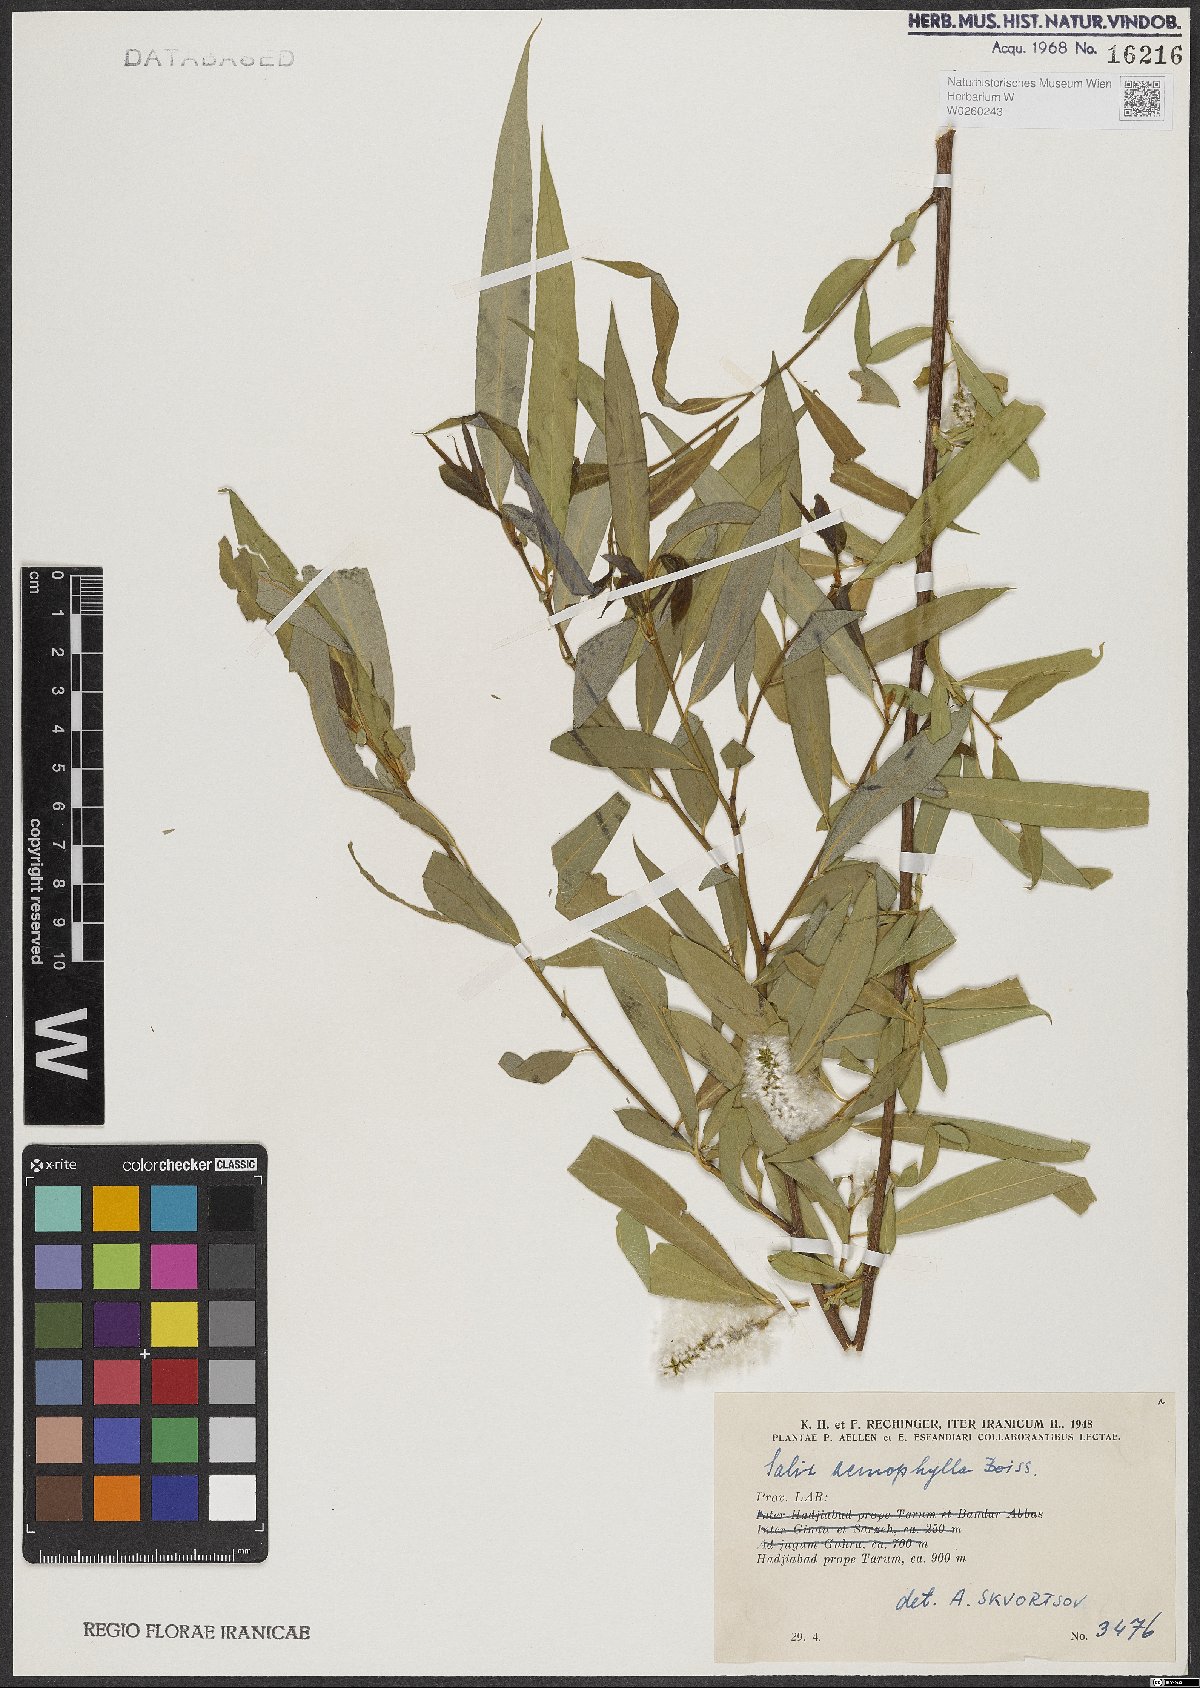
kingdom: Plantae
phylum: Tracheophyta
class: Magnoliopsida
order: Malpighiales
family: Salicaceae
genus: Salix
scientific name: Salix acmophylla
